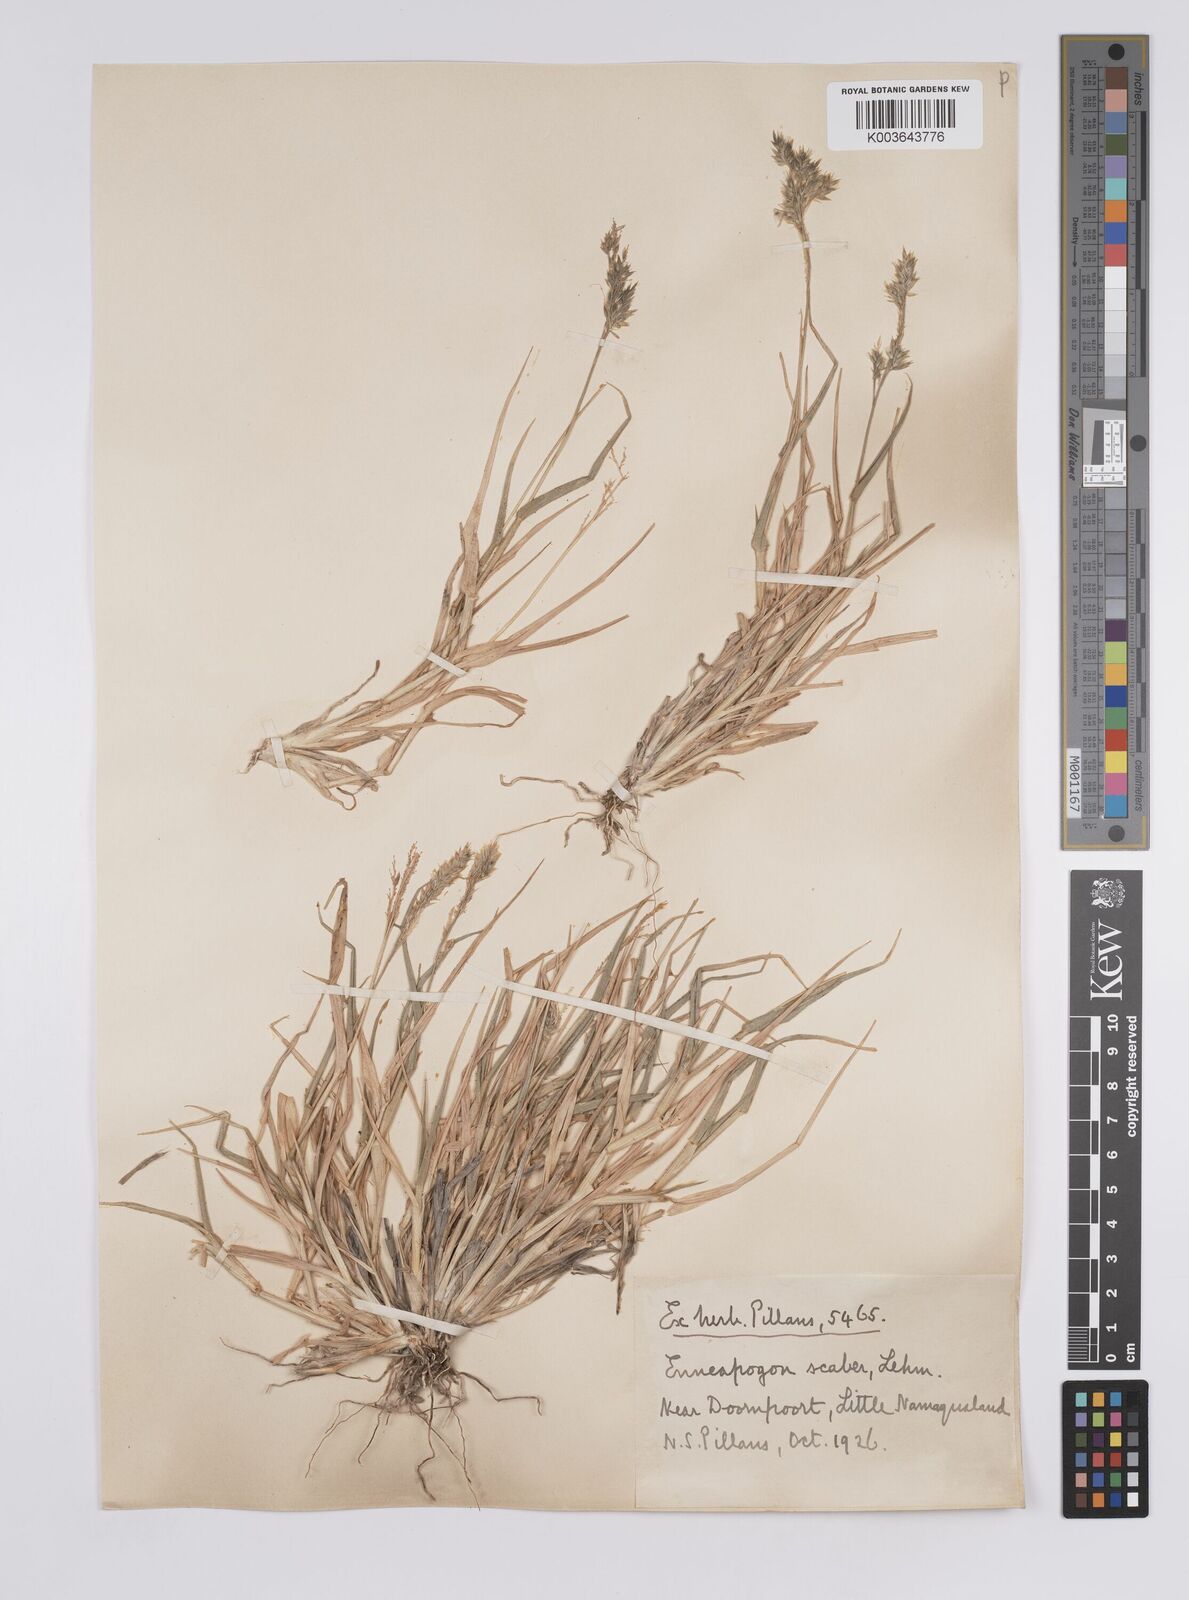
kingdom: Plantae
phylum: Tracheophyta
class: Liliopsida
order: Poales
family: Poaceae
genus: Enneapogon
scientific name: Enneapogon scaber
